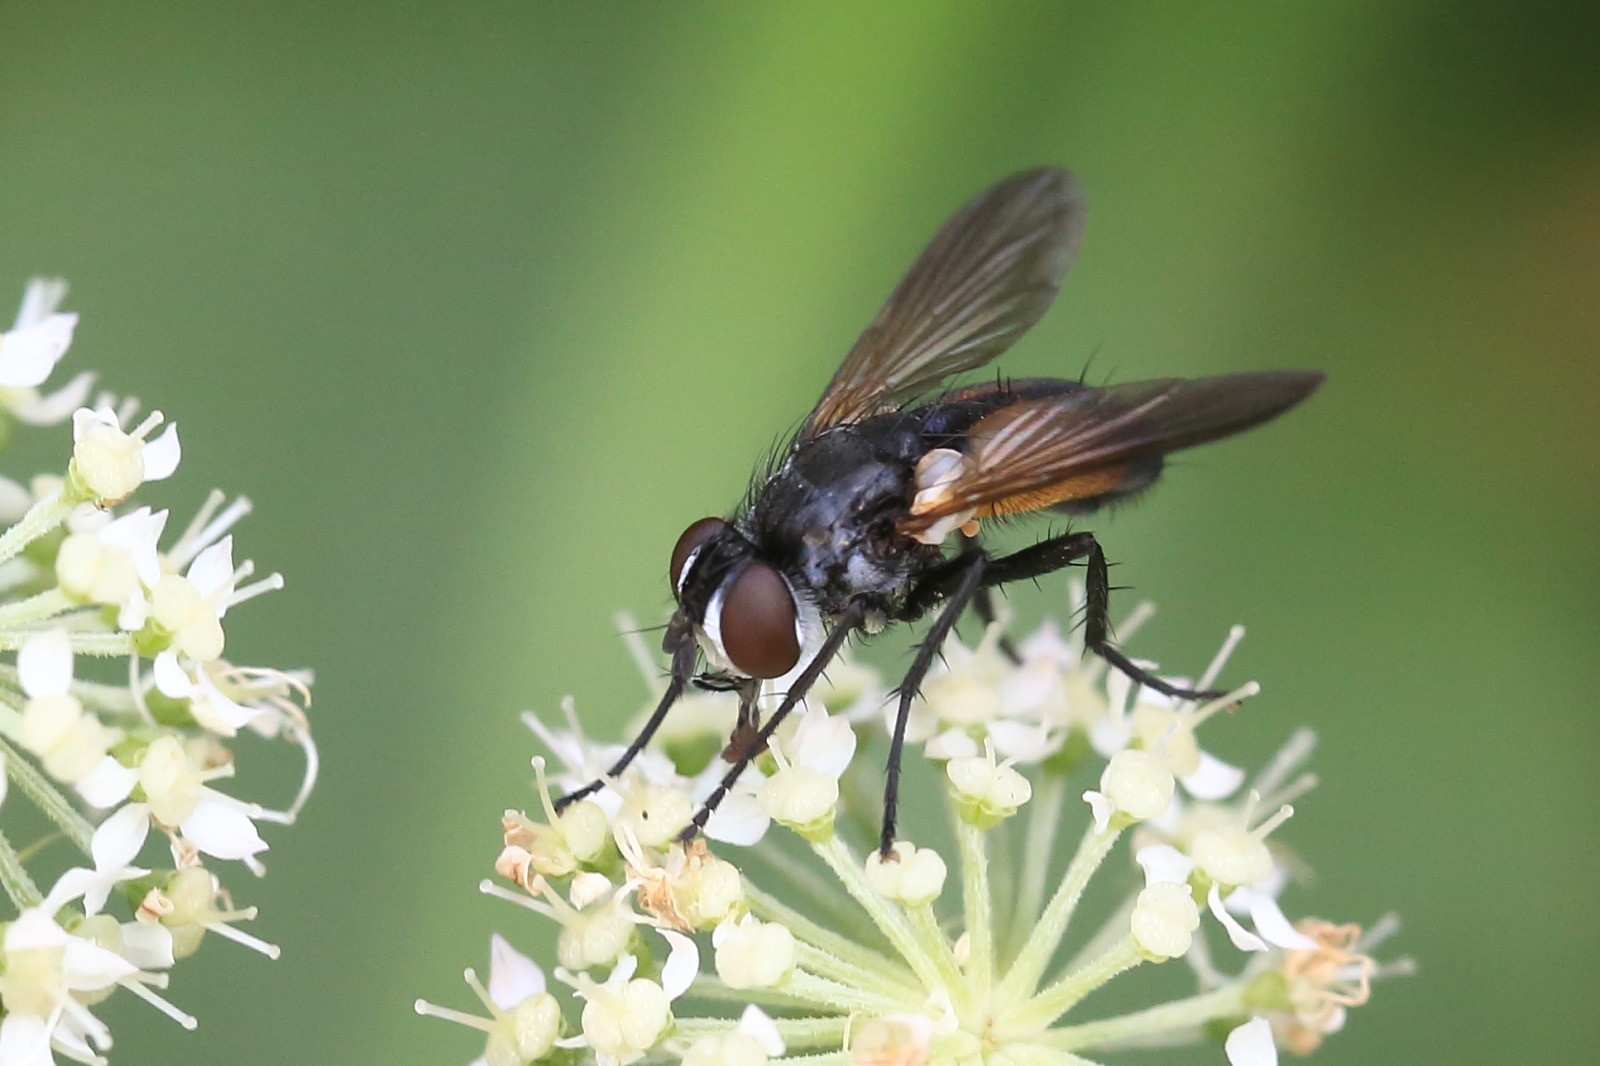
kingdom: Animalia
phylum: Arthropoda
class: Insecta
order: Diptera
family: Tachinidae
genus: Hemyda
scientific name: Hemyda vittata
